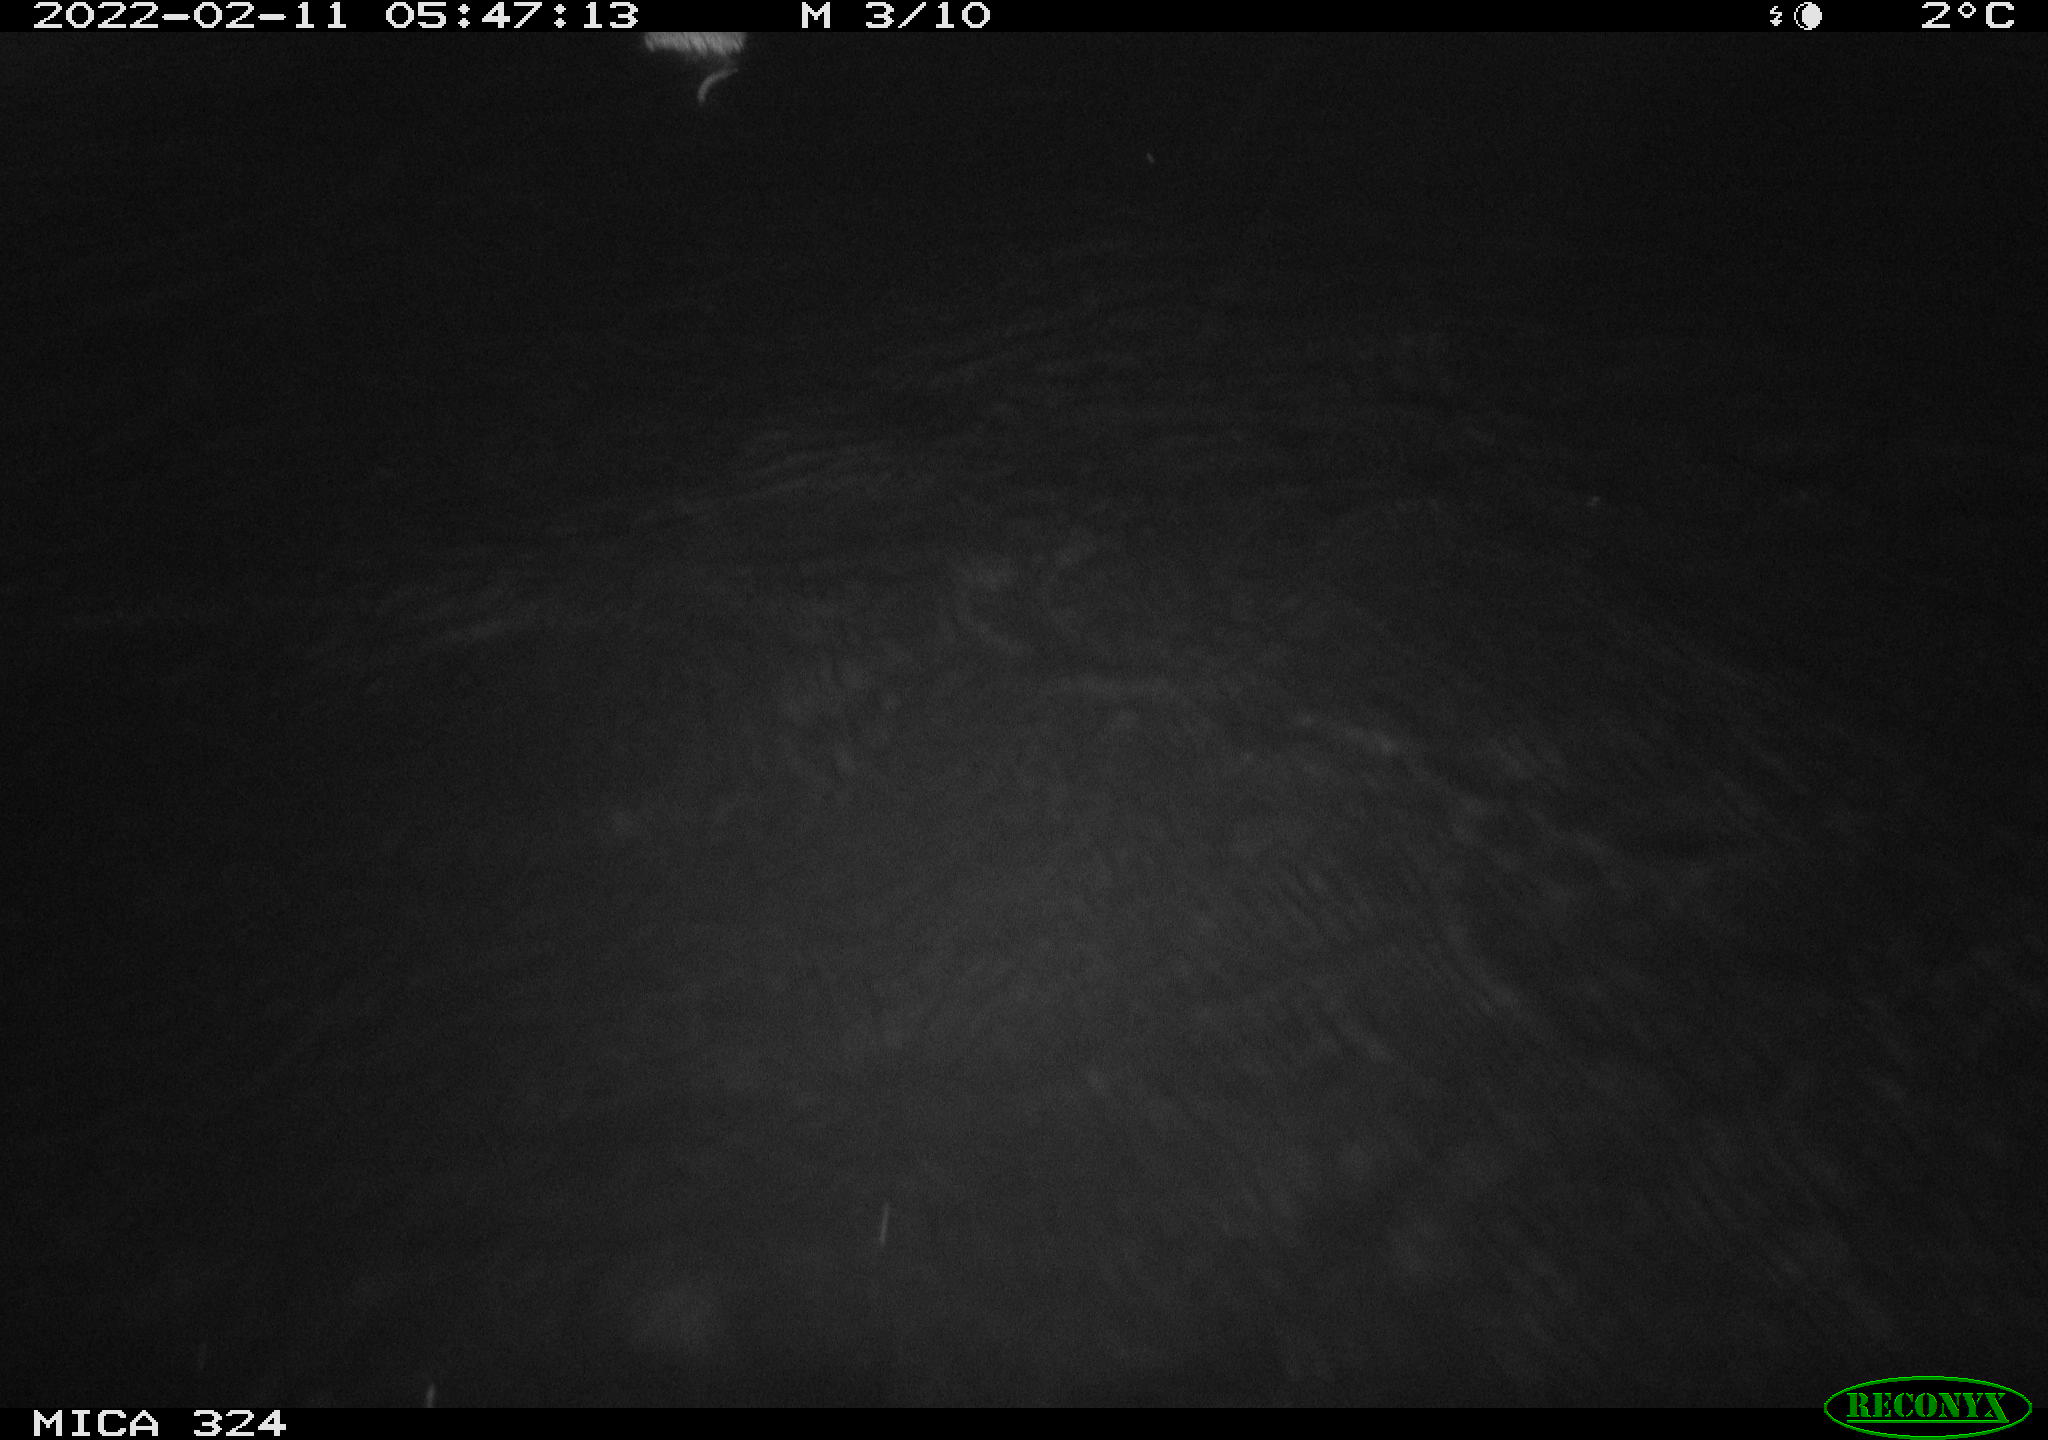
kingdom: Animalia
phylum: Chordata
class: Mammalia
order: Rodentia
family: Cricetidae
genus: Ondatra
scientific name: Ondatra zibethicus
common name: Muskrat
